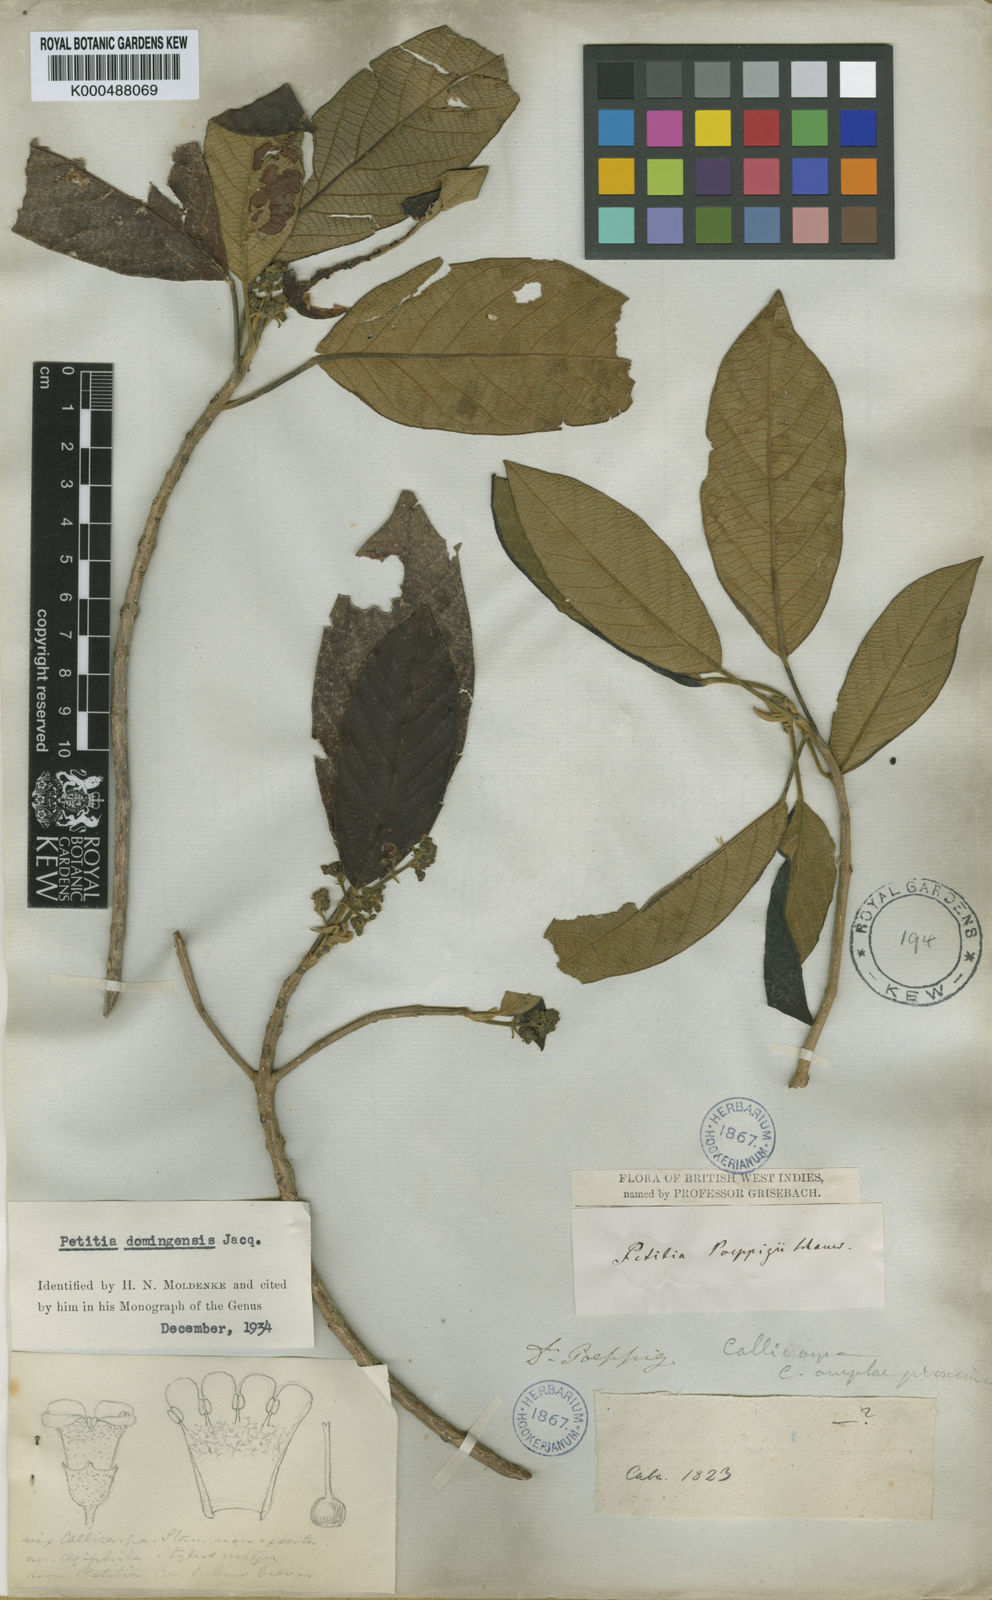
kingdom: Plantae
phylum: Tracheophyta
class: Magnoliopsida
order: Lamiales
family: Lamiaceae
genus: Petitia
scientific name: Petitia domingensis
